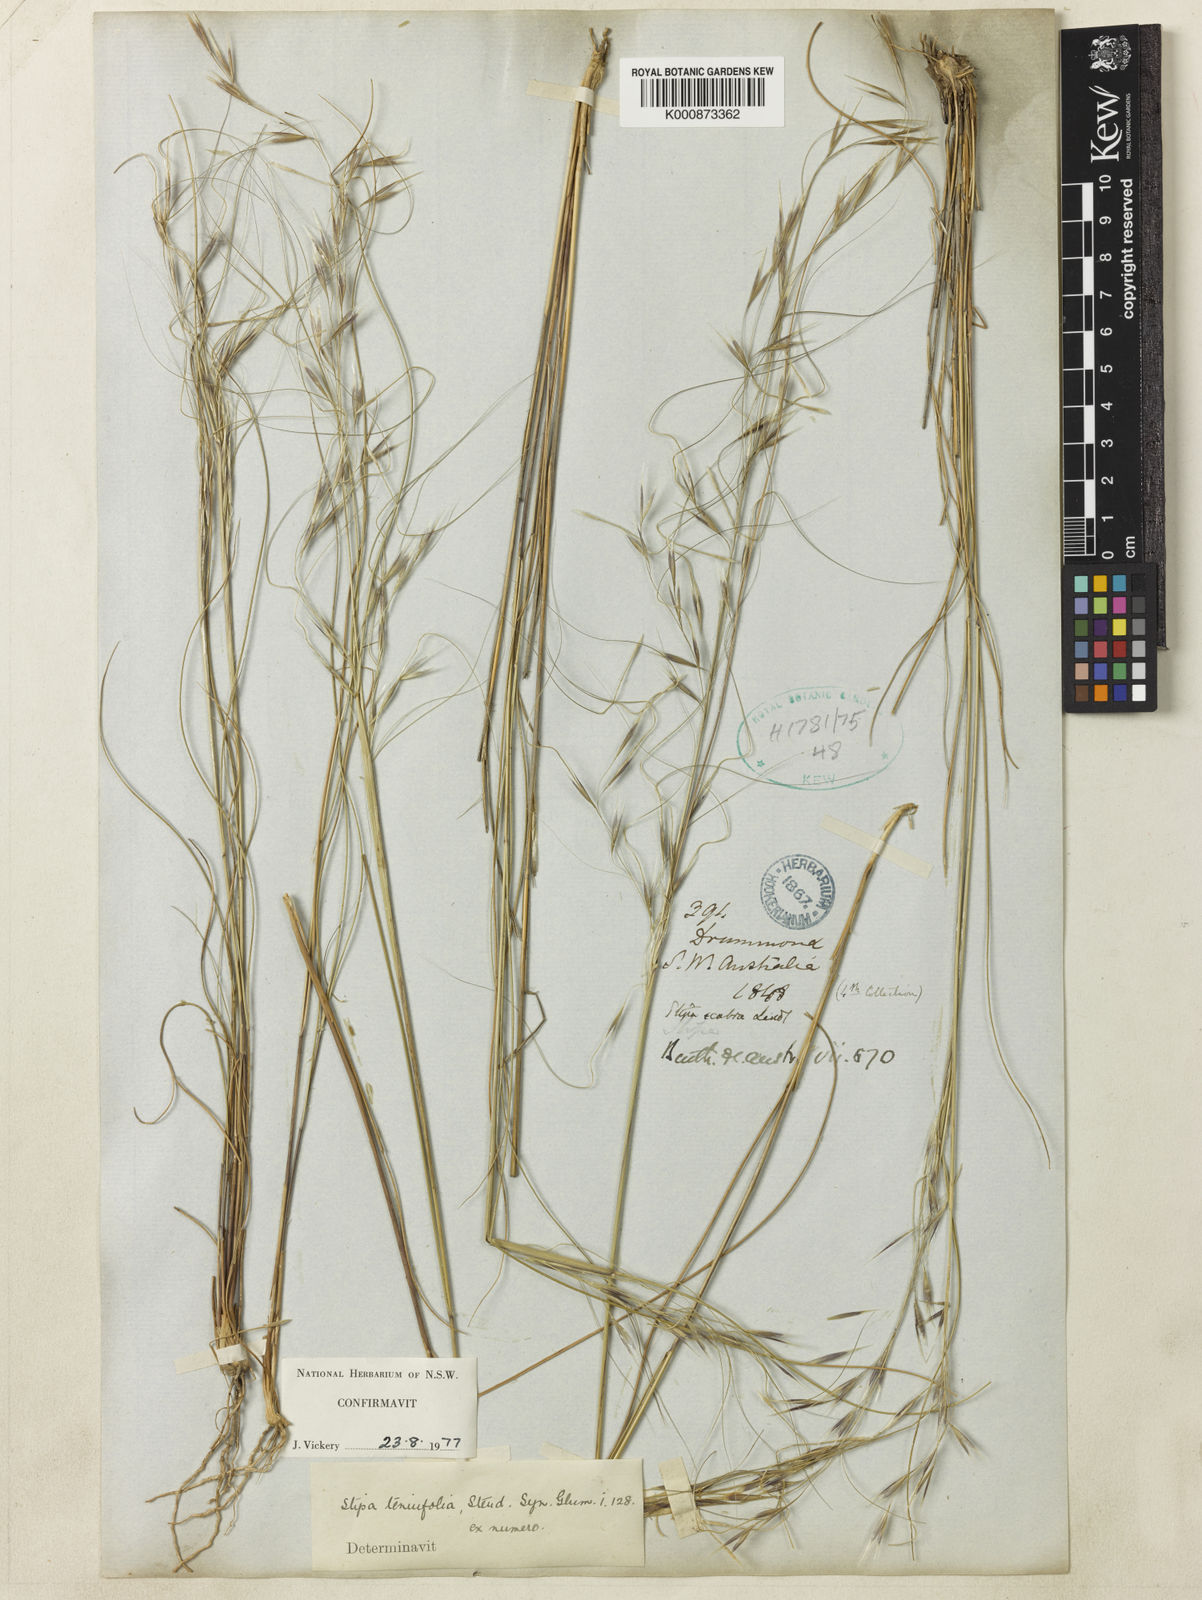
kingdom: Plantae
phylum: Tracheophyta
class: Liliopsida
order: Poales
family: Poaceae
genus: Austrostipa
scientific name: Austrostipa scabra
